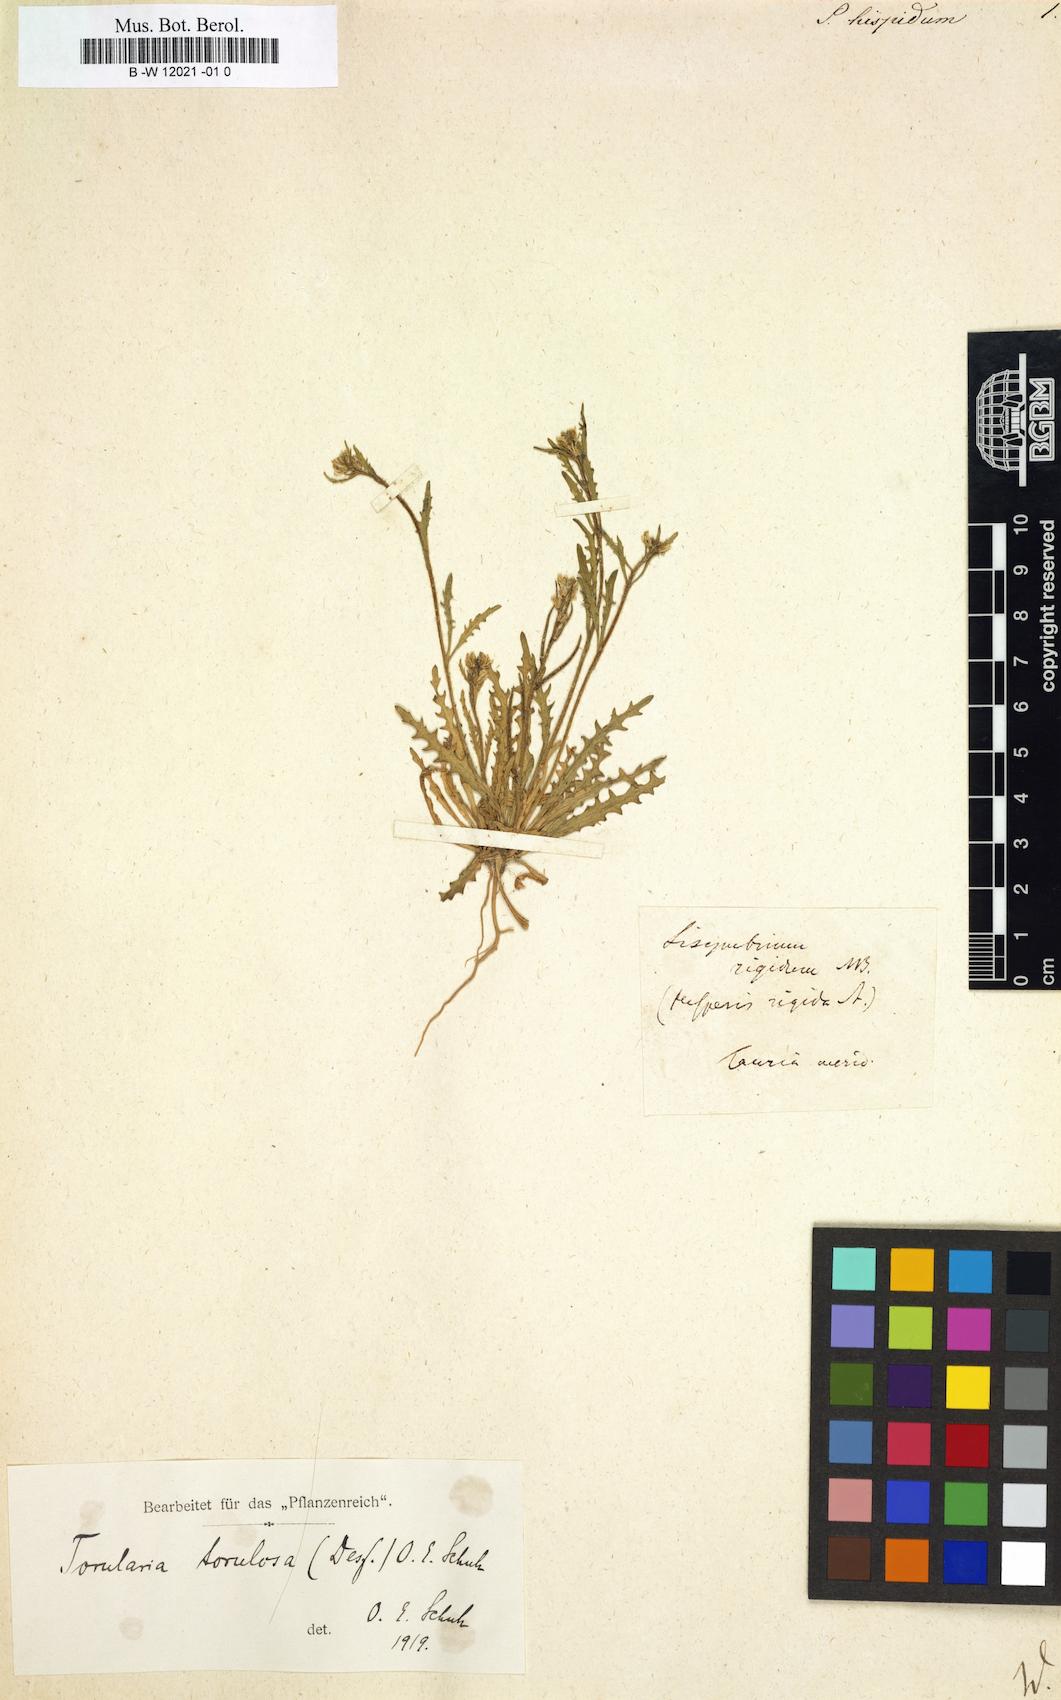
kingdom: Plantae
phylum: Tracheophyta
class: Magnoliopsida
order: Brassicales
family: Brassicaceae
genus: Sisymbrium
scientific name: Sisymbrium hispidum
